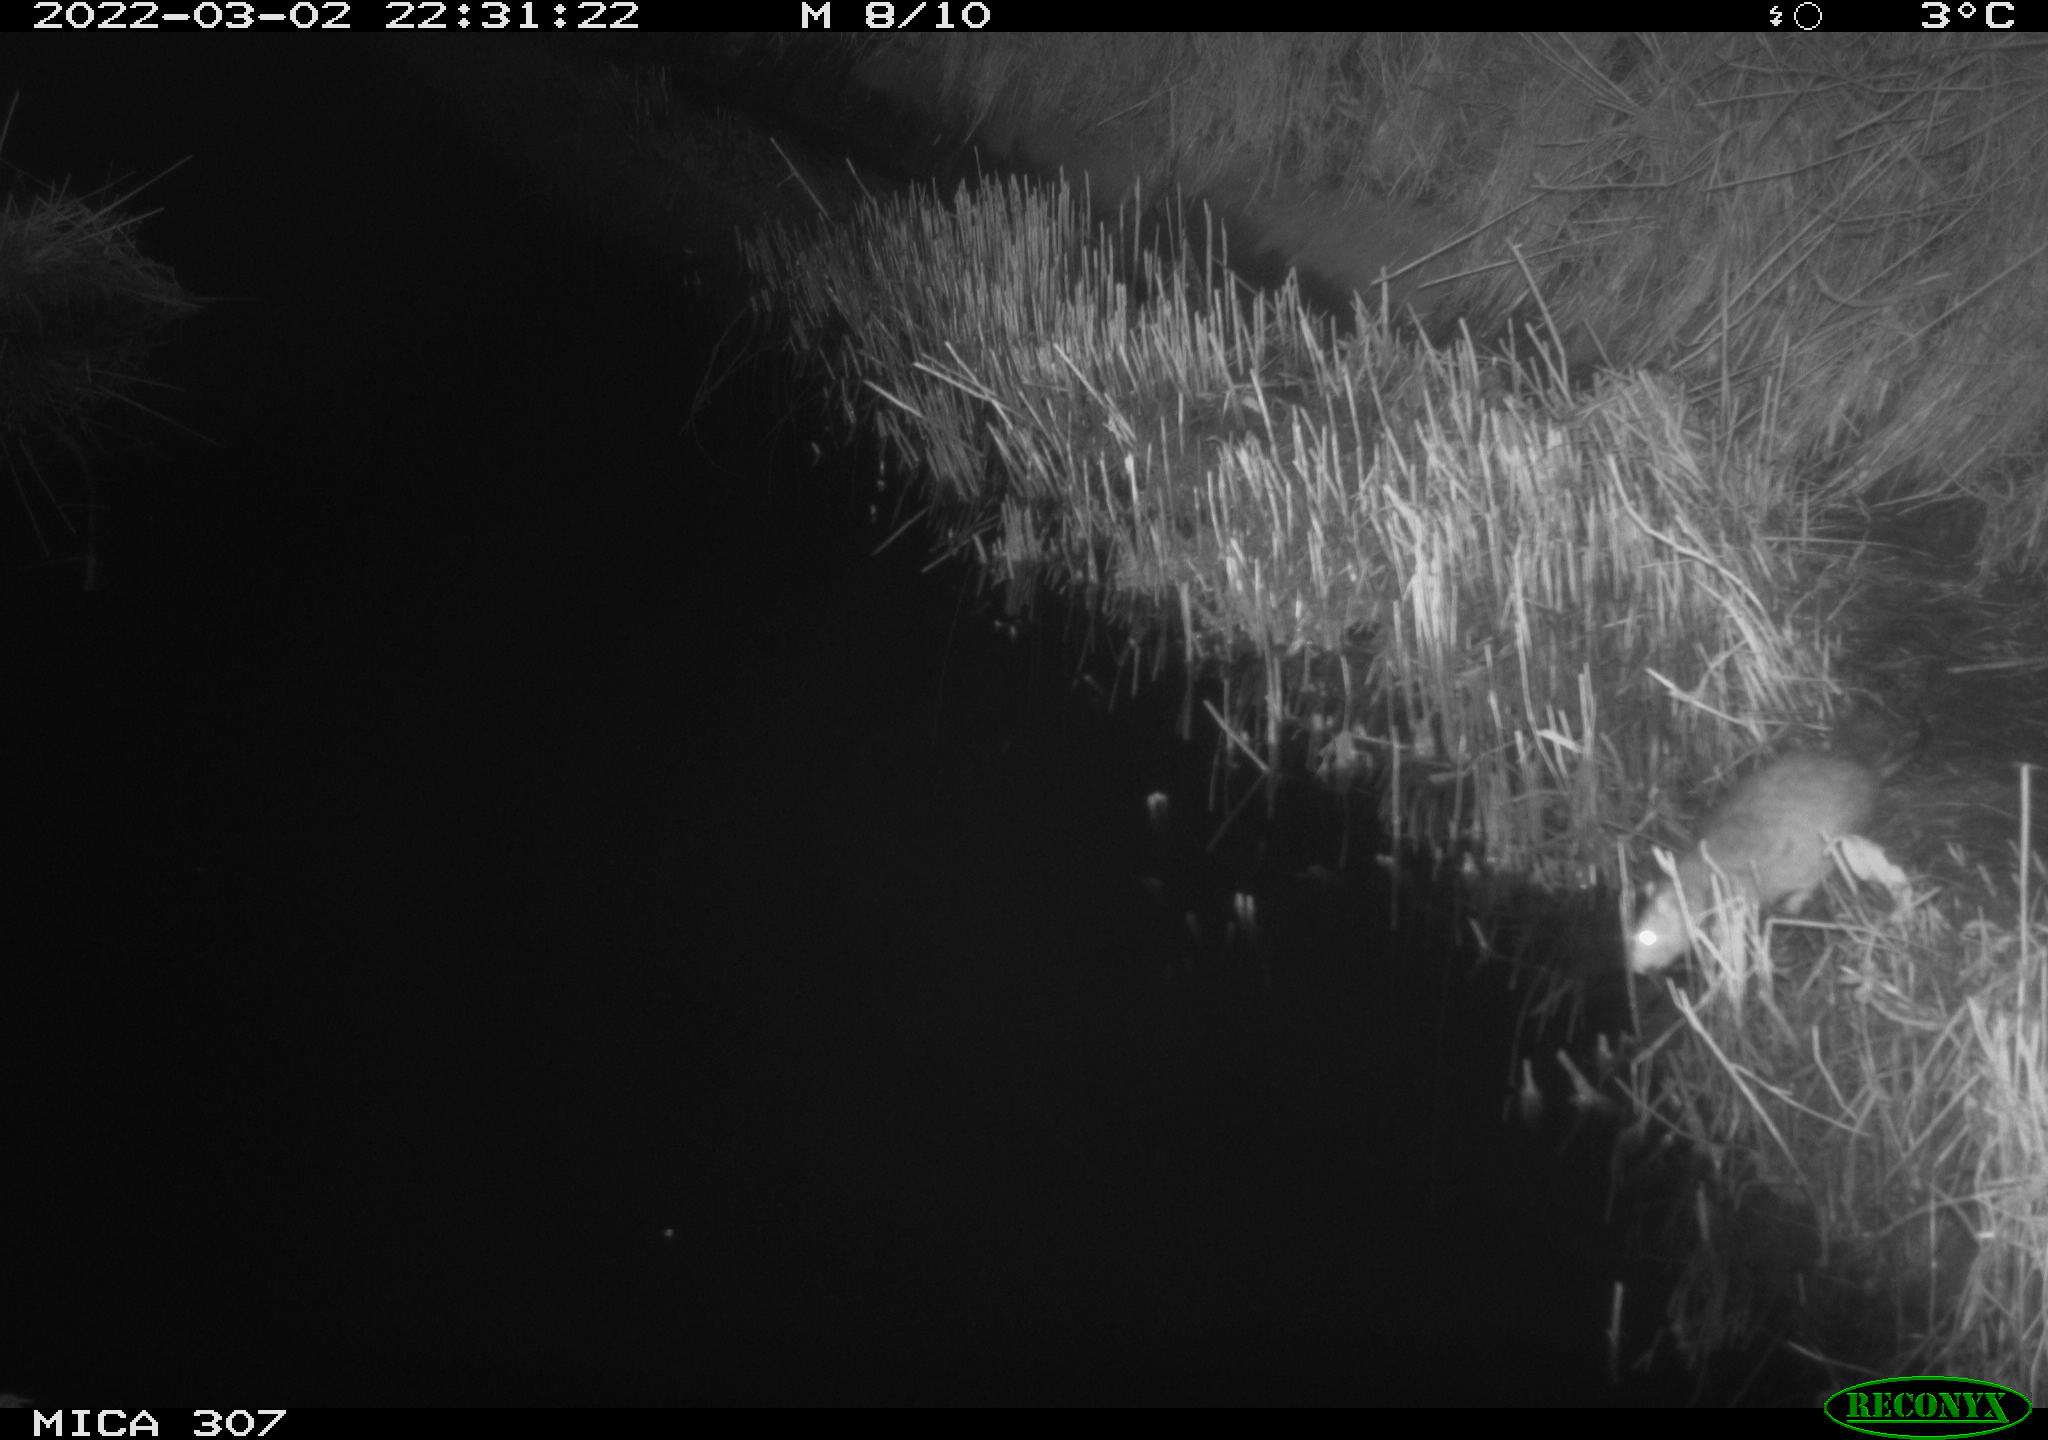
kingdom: Animalia
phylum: Chordata
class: Mammalia
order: Rodentia
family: Muridae
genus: Rattus
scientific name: Rattus norvegicus
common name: Brown rat
